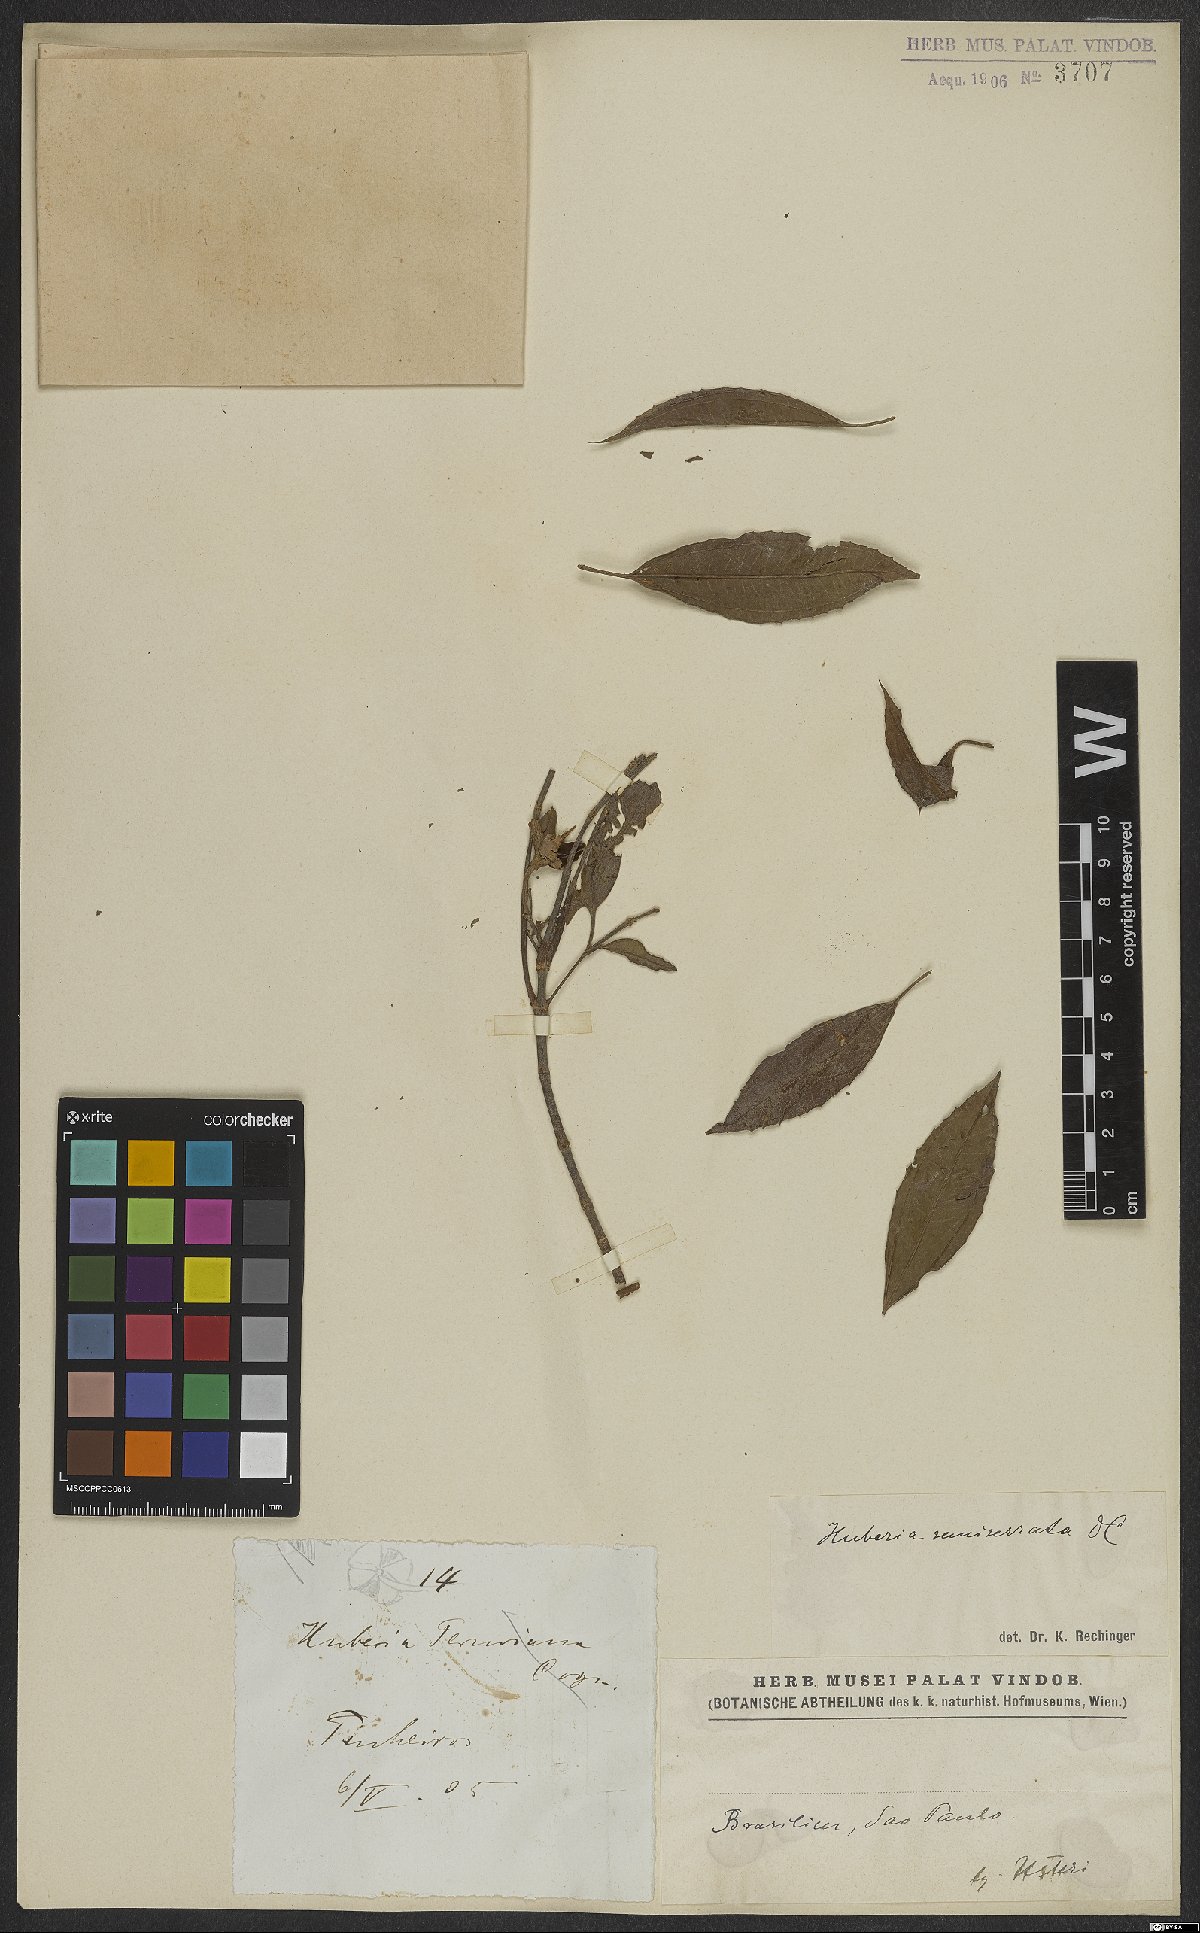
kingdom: Plantae
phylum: Tracheophyta
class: Magnoliopsida
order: Myrtales
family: Melastomataceae
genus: Huberia
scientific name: Huberia semiserrata
